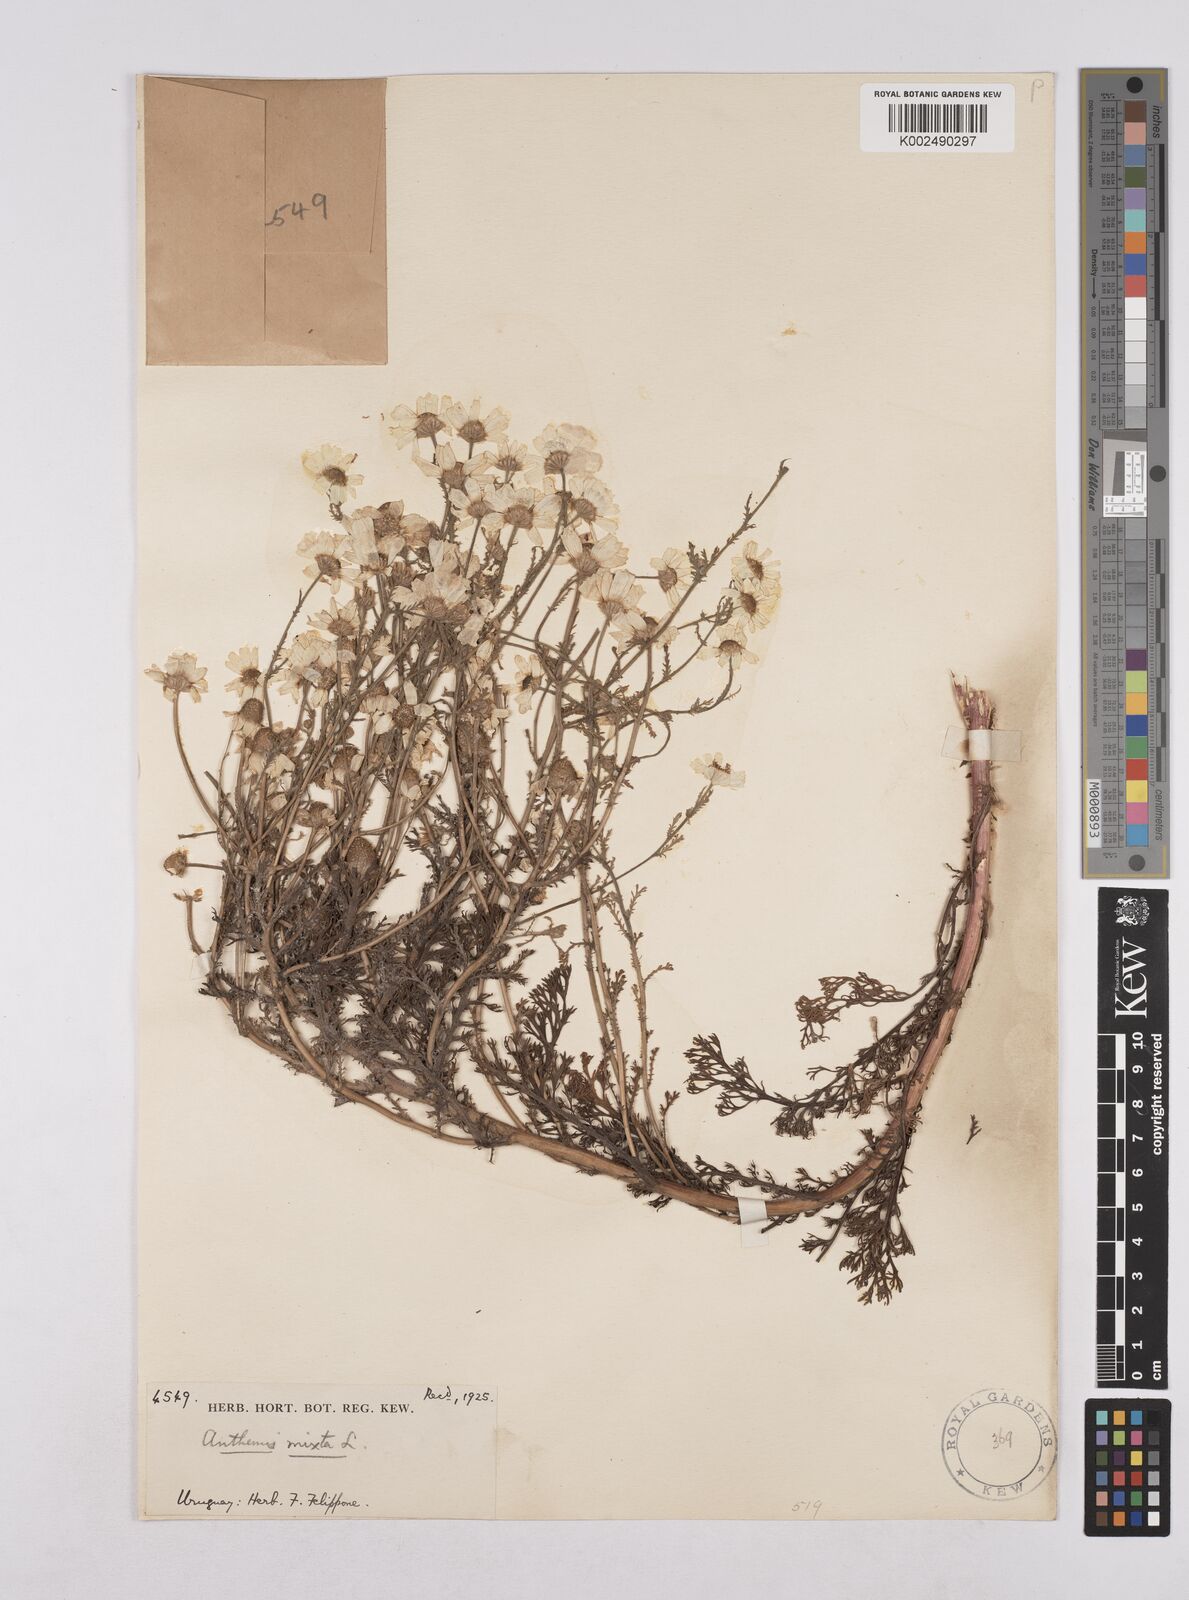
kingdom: Plantae
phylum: Tracheophyta
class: Magnoliopsida
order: Asterales
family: Asteraceae
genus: Cladanthus
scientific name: Cladanthus mixtus
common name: Weedy dogfennel
